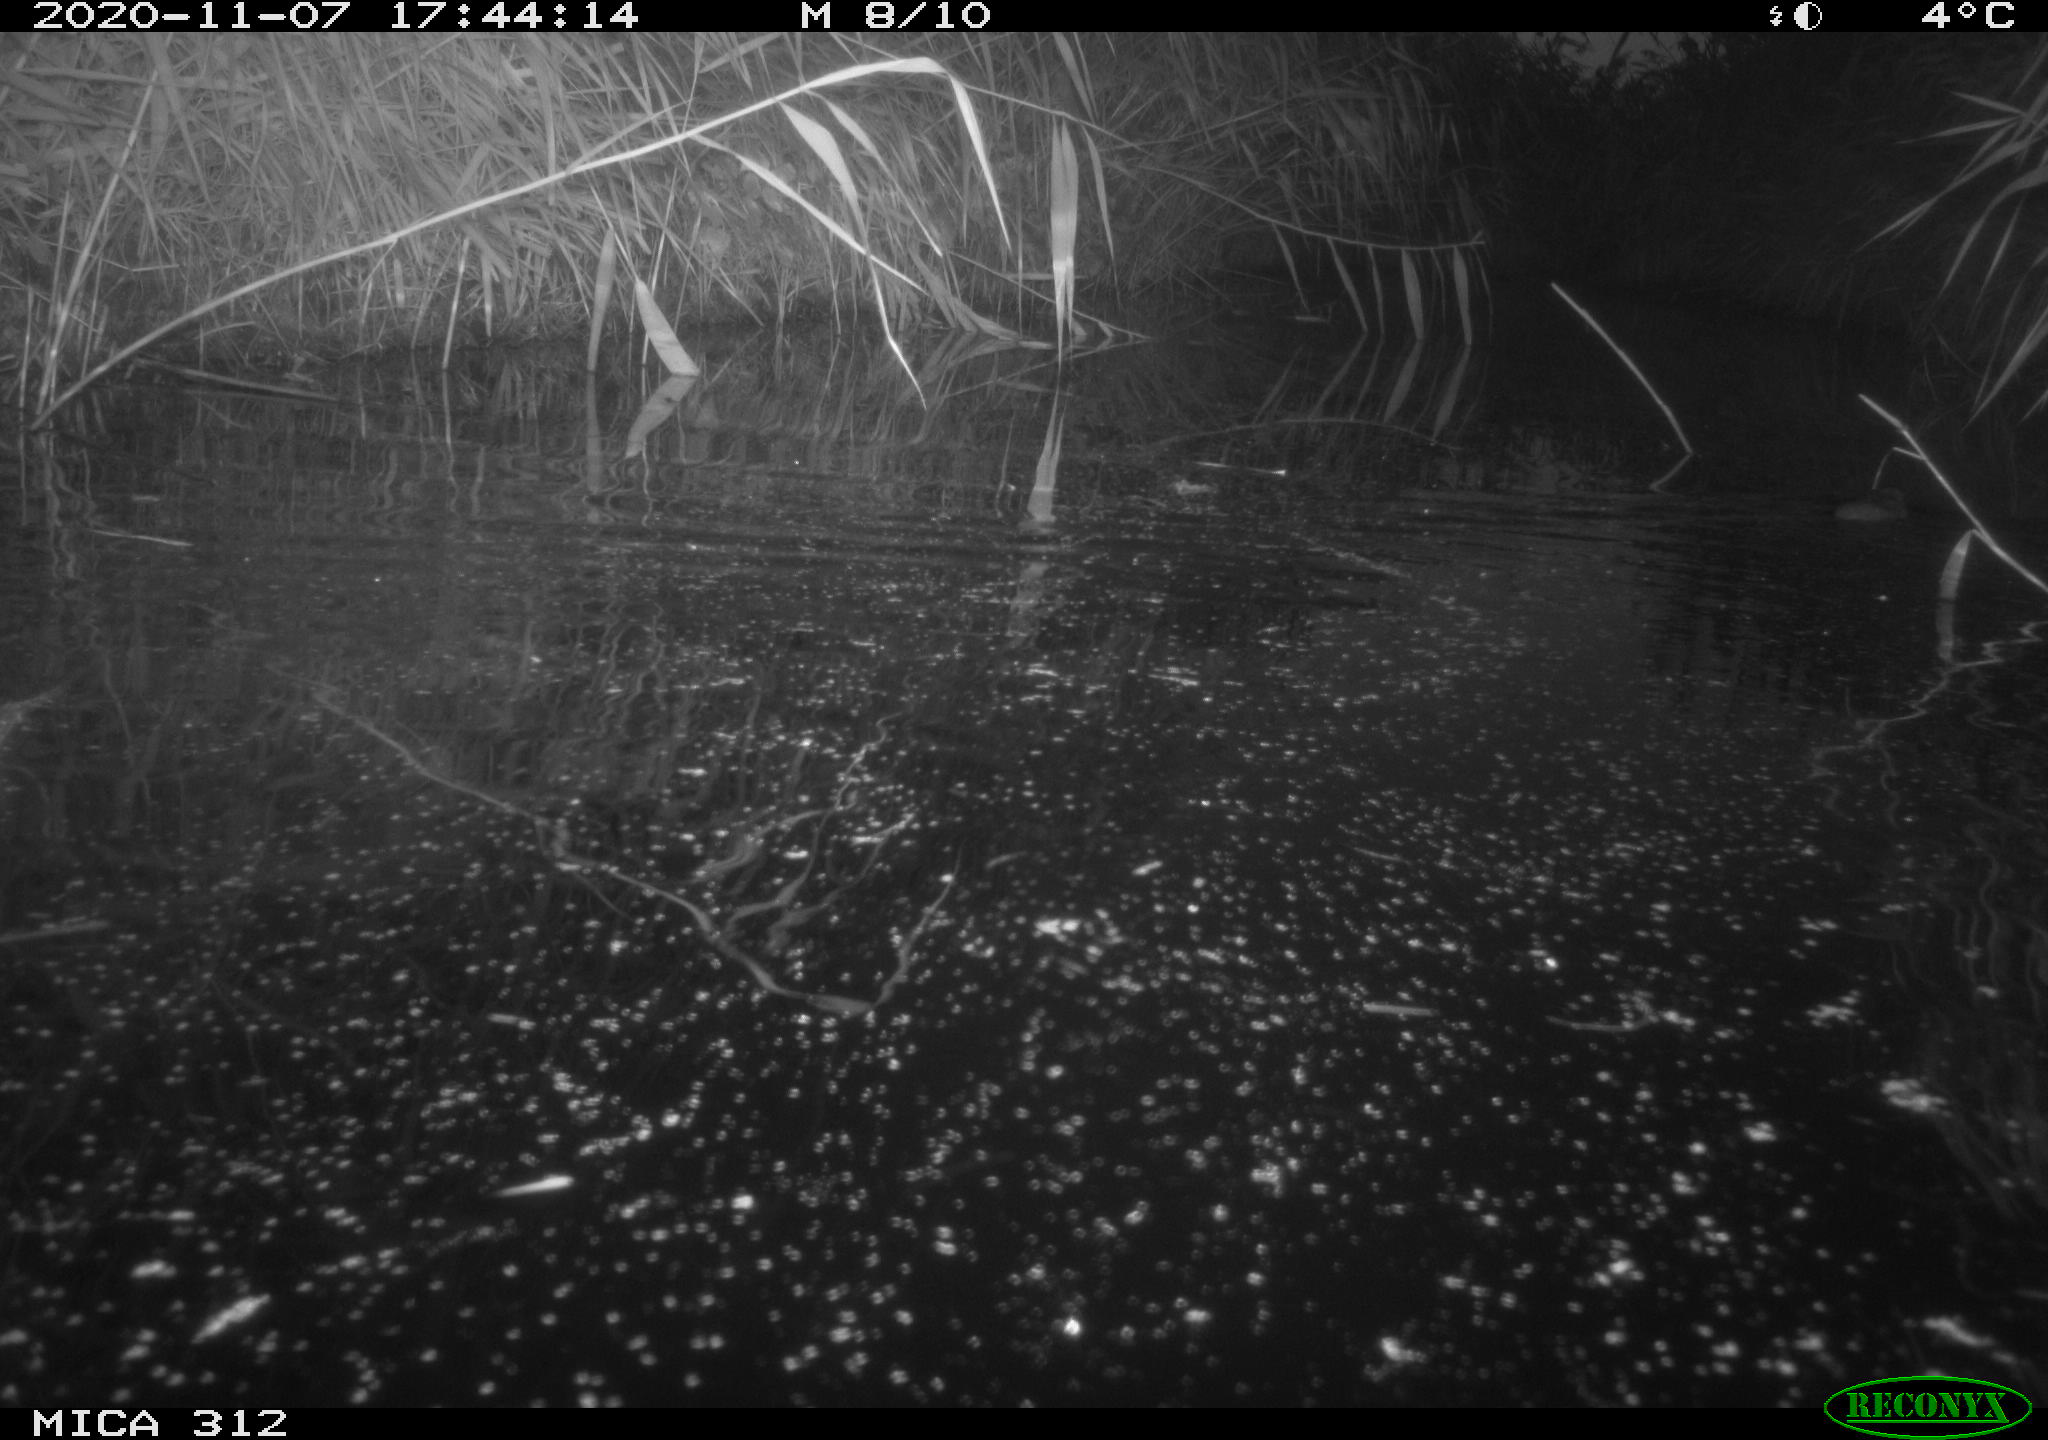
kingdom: Animalia
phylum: Chordata
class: Mammalia
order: Rodentia
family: Muridae
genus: Rattus
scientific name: Rattus norvegicus
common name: Brown rat
